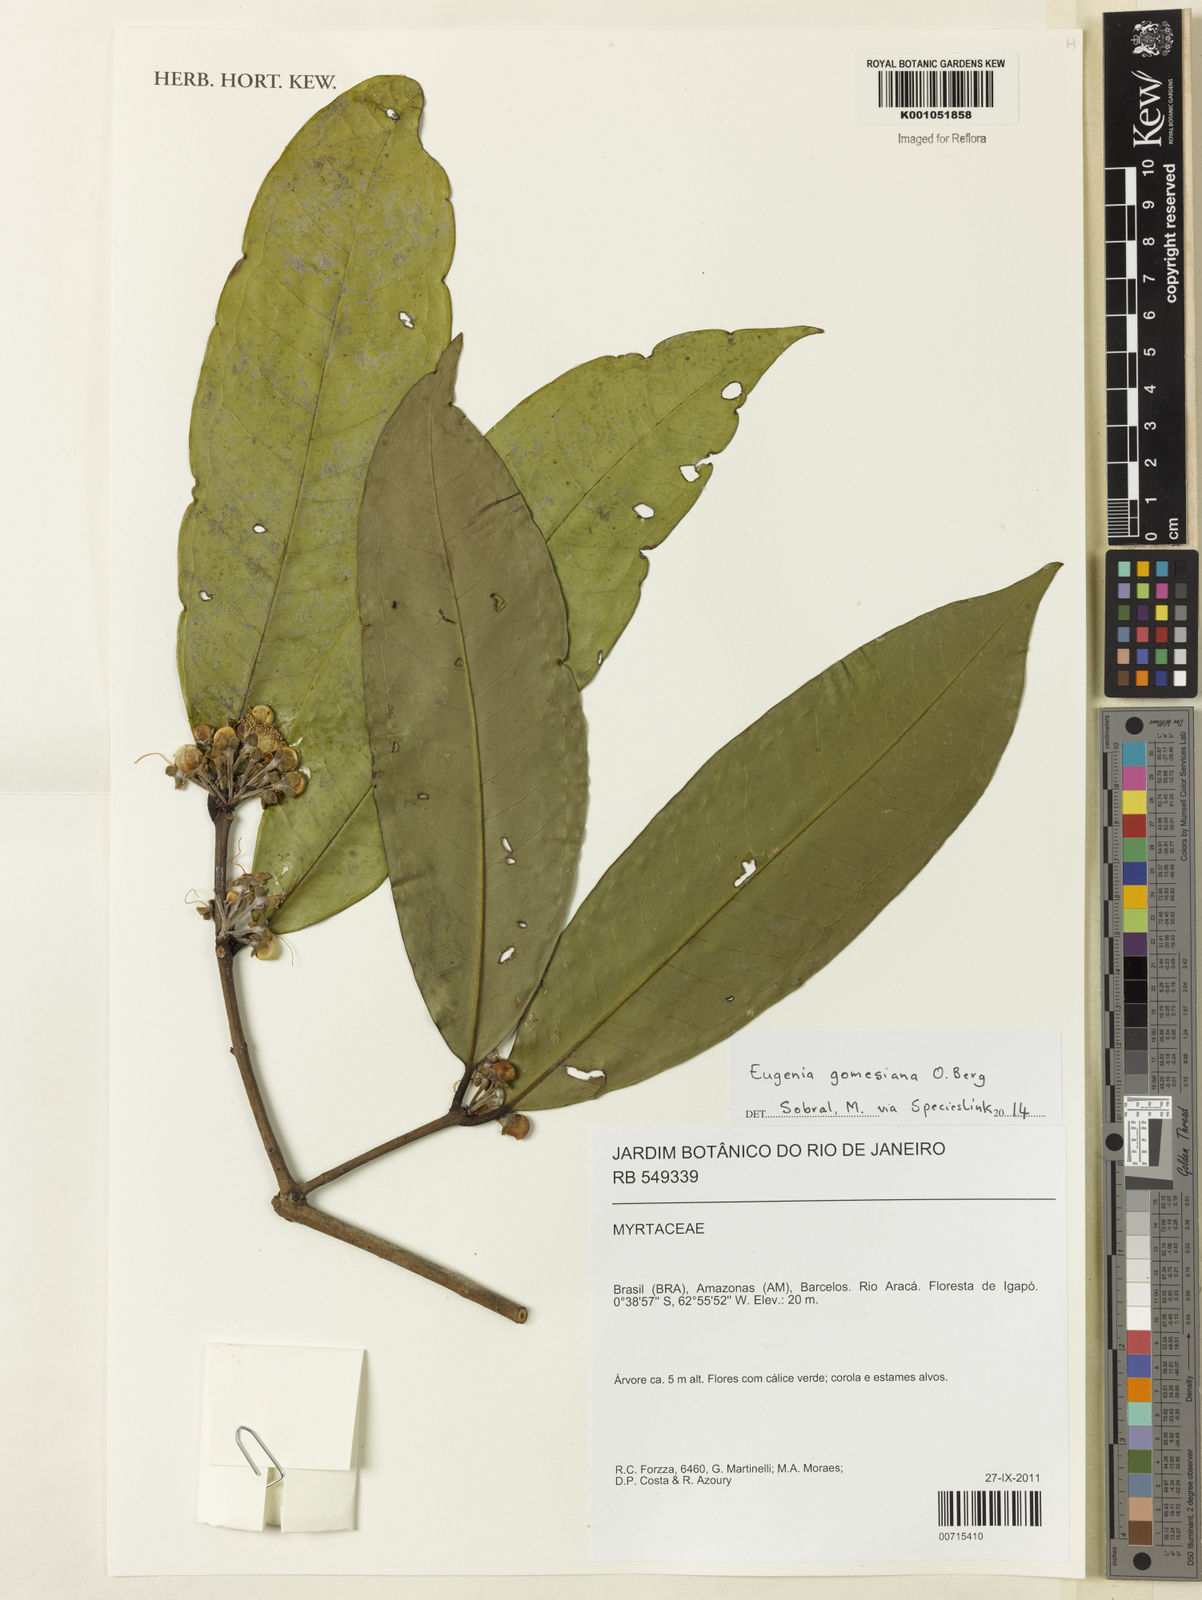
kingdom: Plantae
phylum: Tracheophyta
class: Magnoliopsida
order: Myrtales
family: Myrtaceae
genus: Eugenia
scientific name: Eugenia gomesiana
